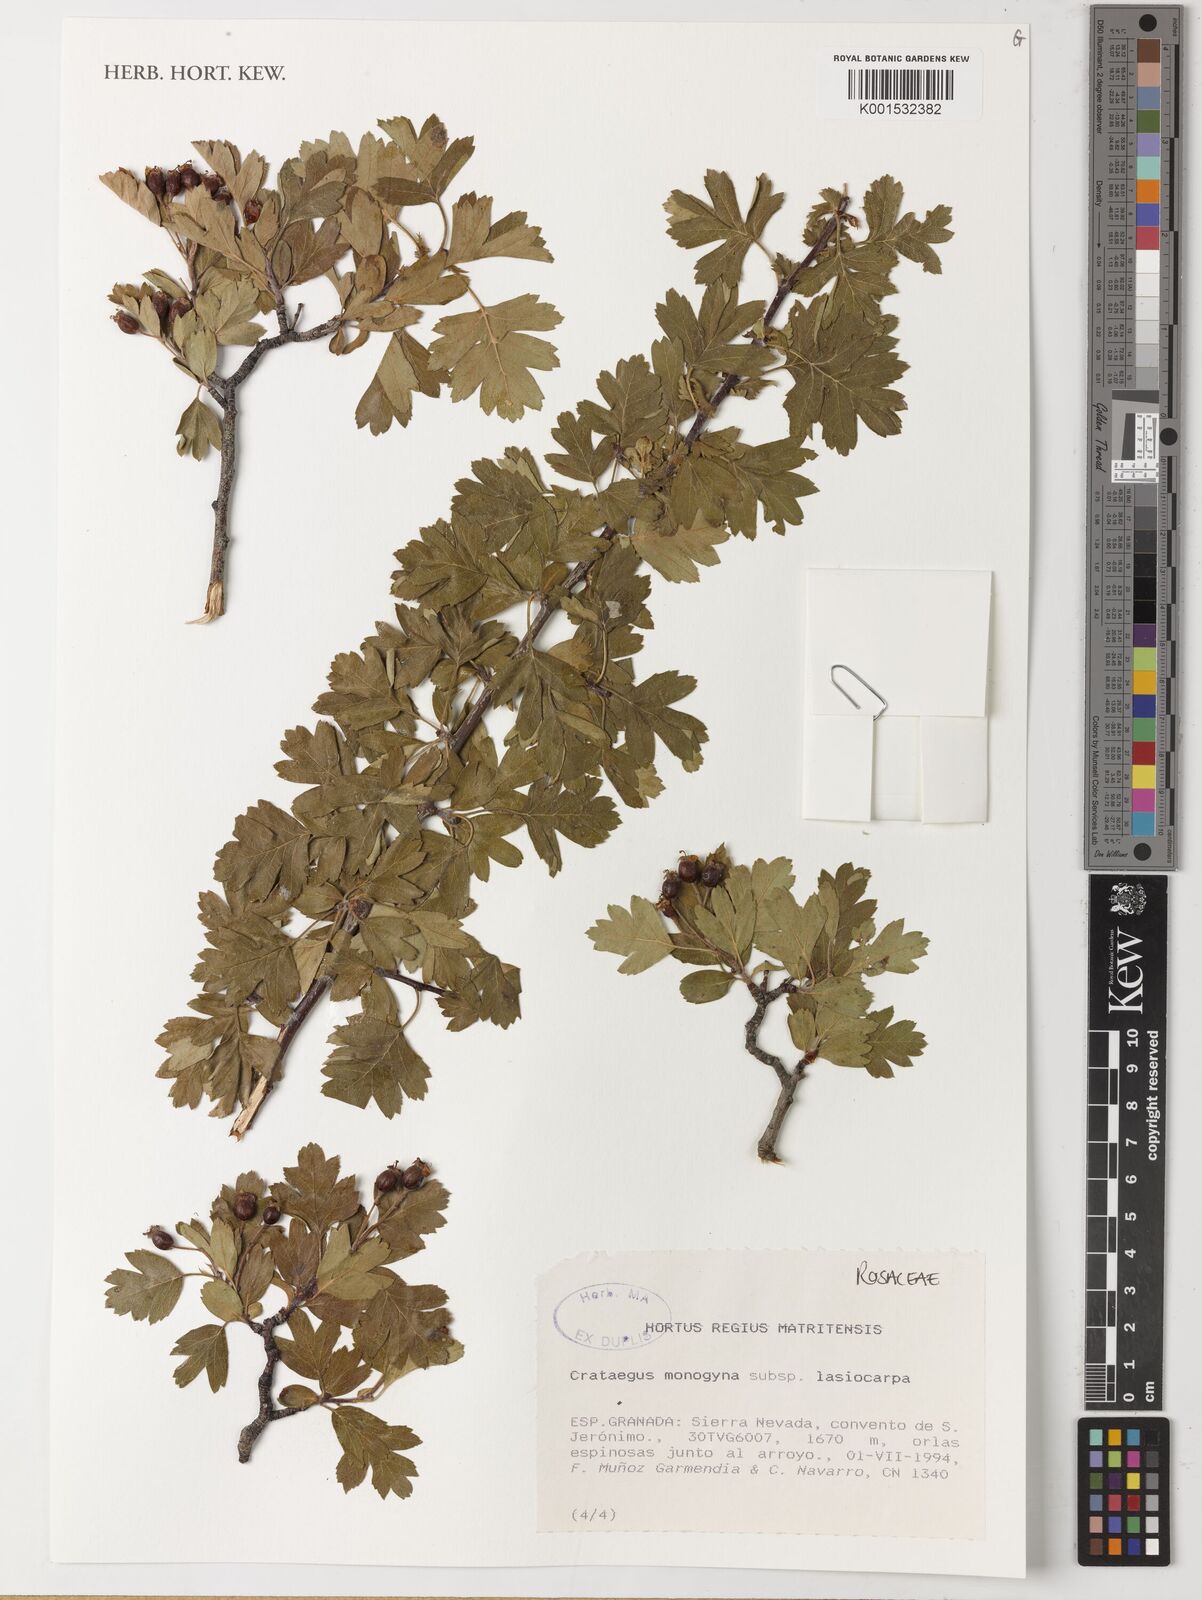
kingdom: Plantae
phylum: Tracheophyta
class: Magnoliopsida
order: Rosales
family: Rosaceae
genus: Crataegus
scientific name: Crataegus monogyna
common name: Hawthorn
